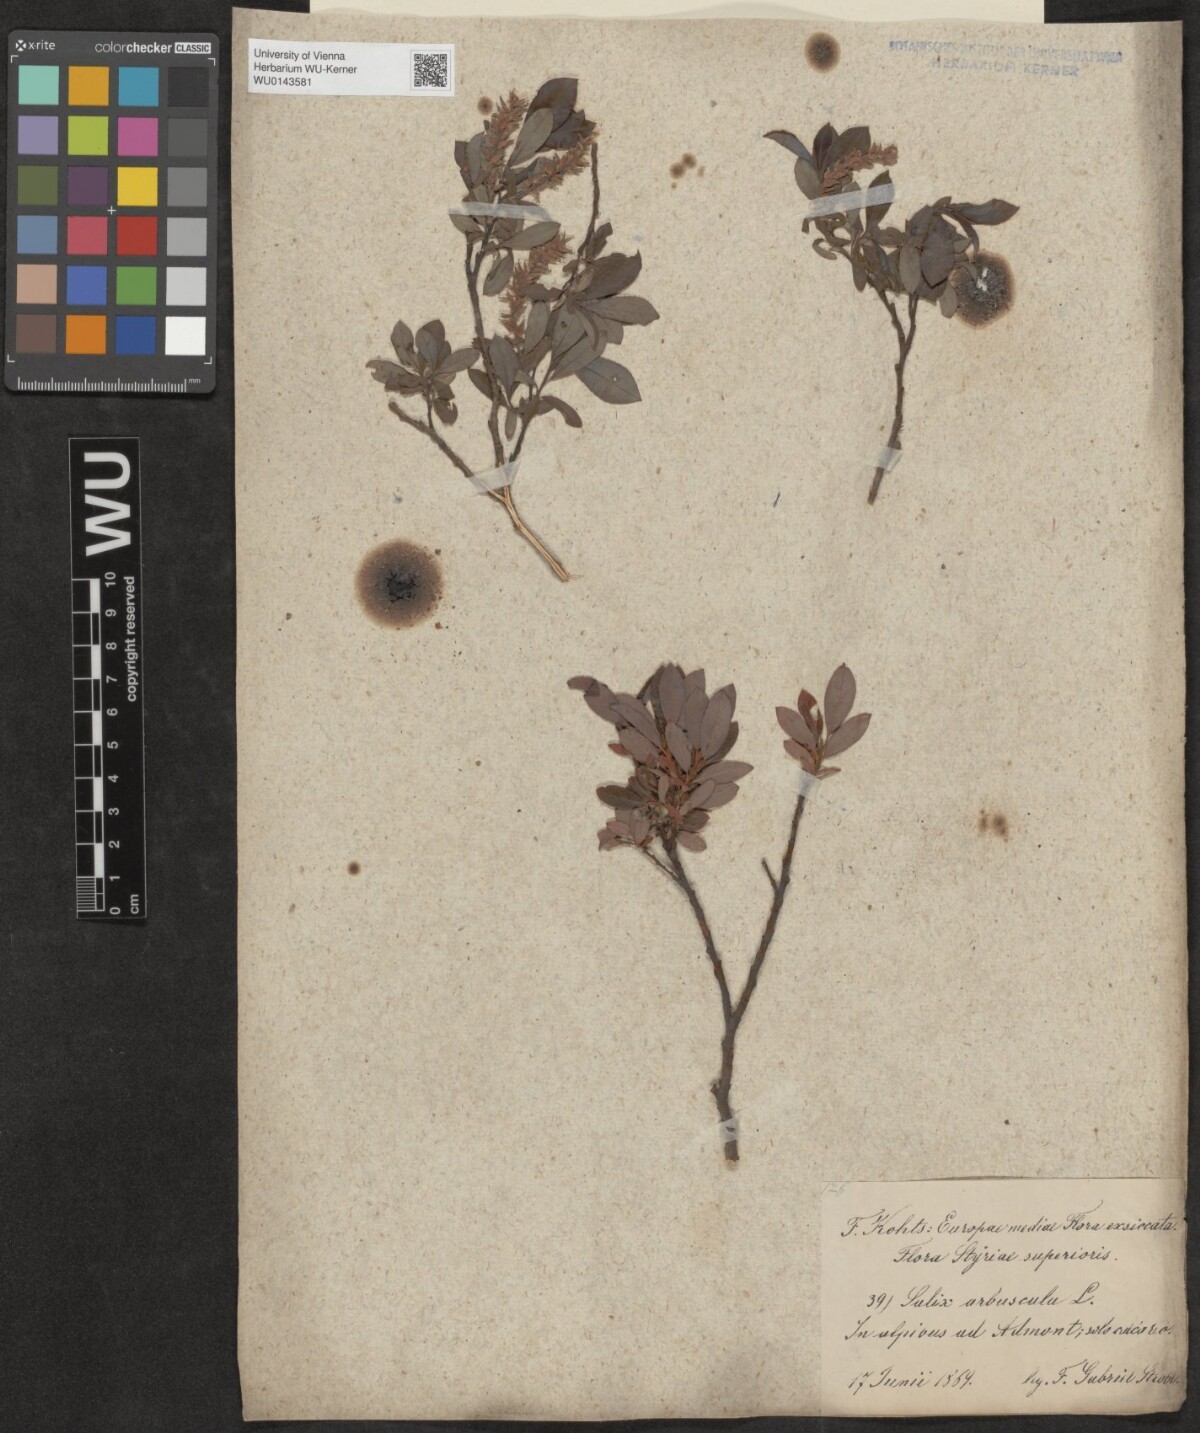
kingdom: Plantae
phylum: Tracheophyta
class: Magnoliopsida
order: Malpighiales
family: Salicaceae
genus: Salix
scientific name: Salix waldsteiniana
